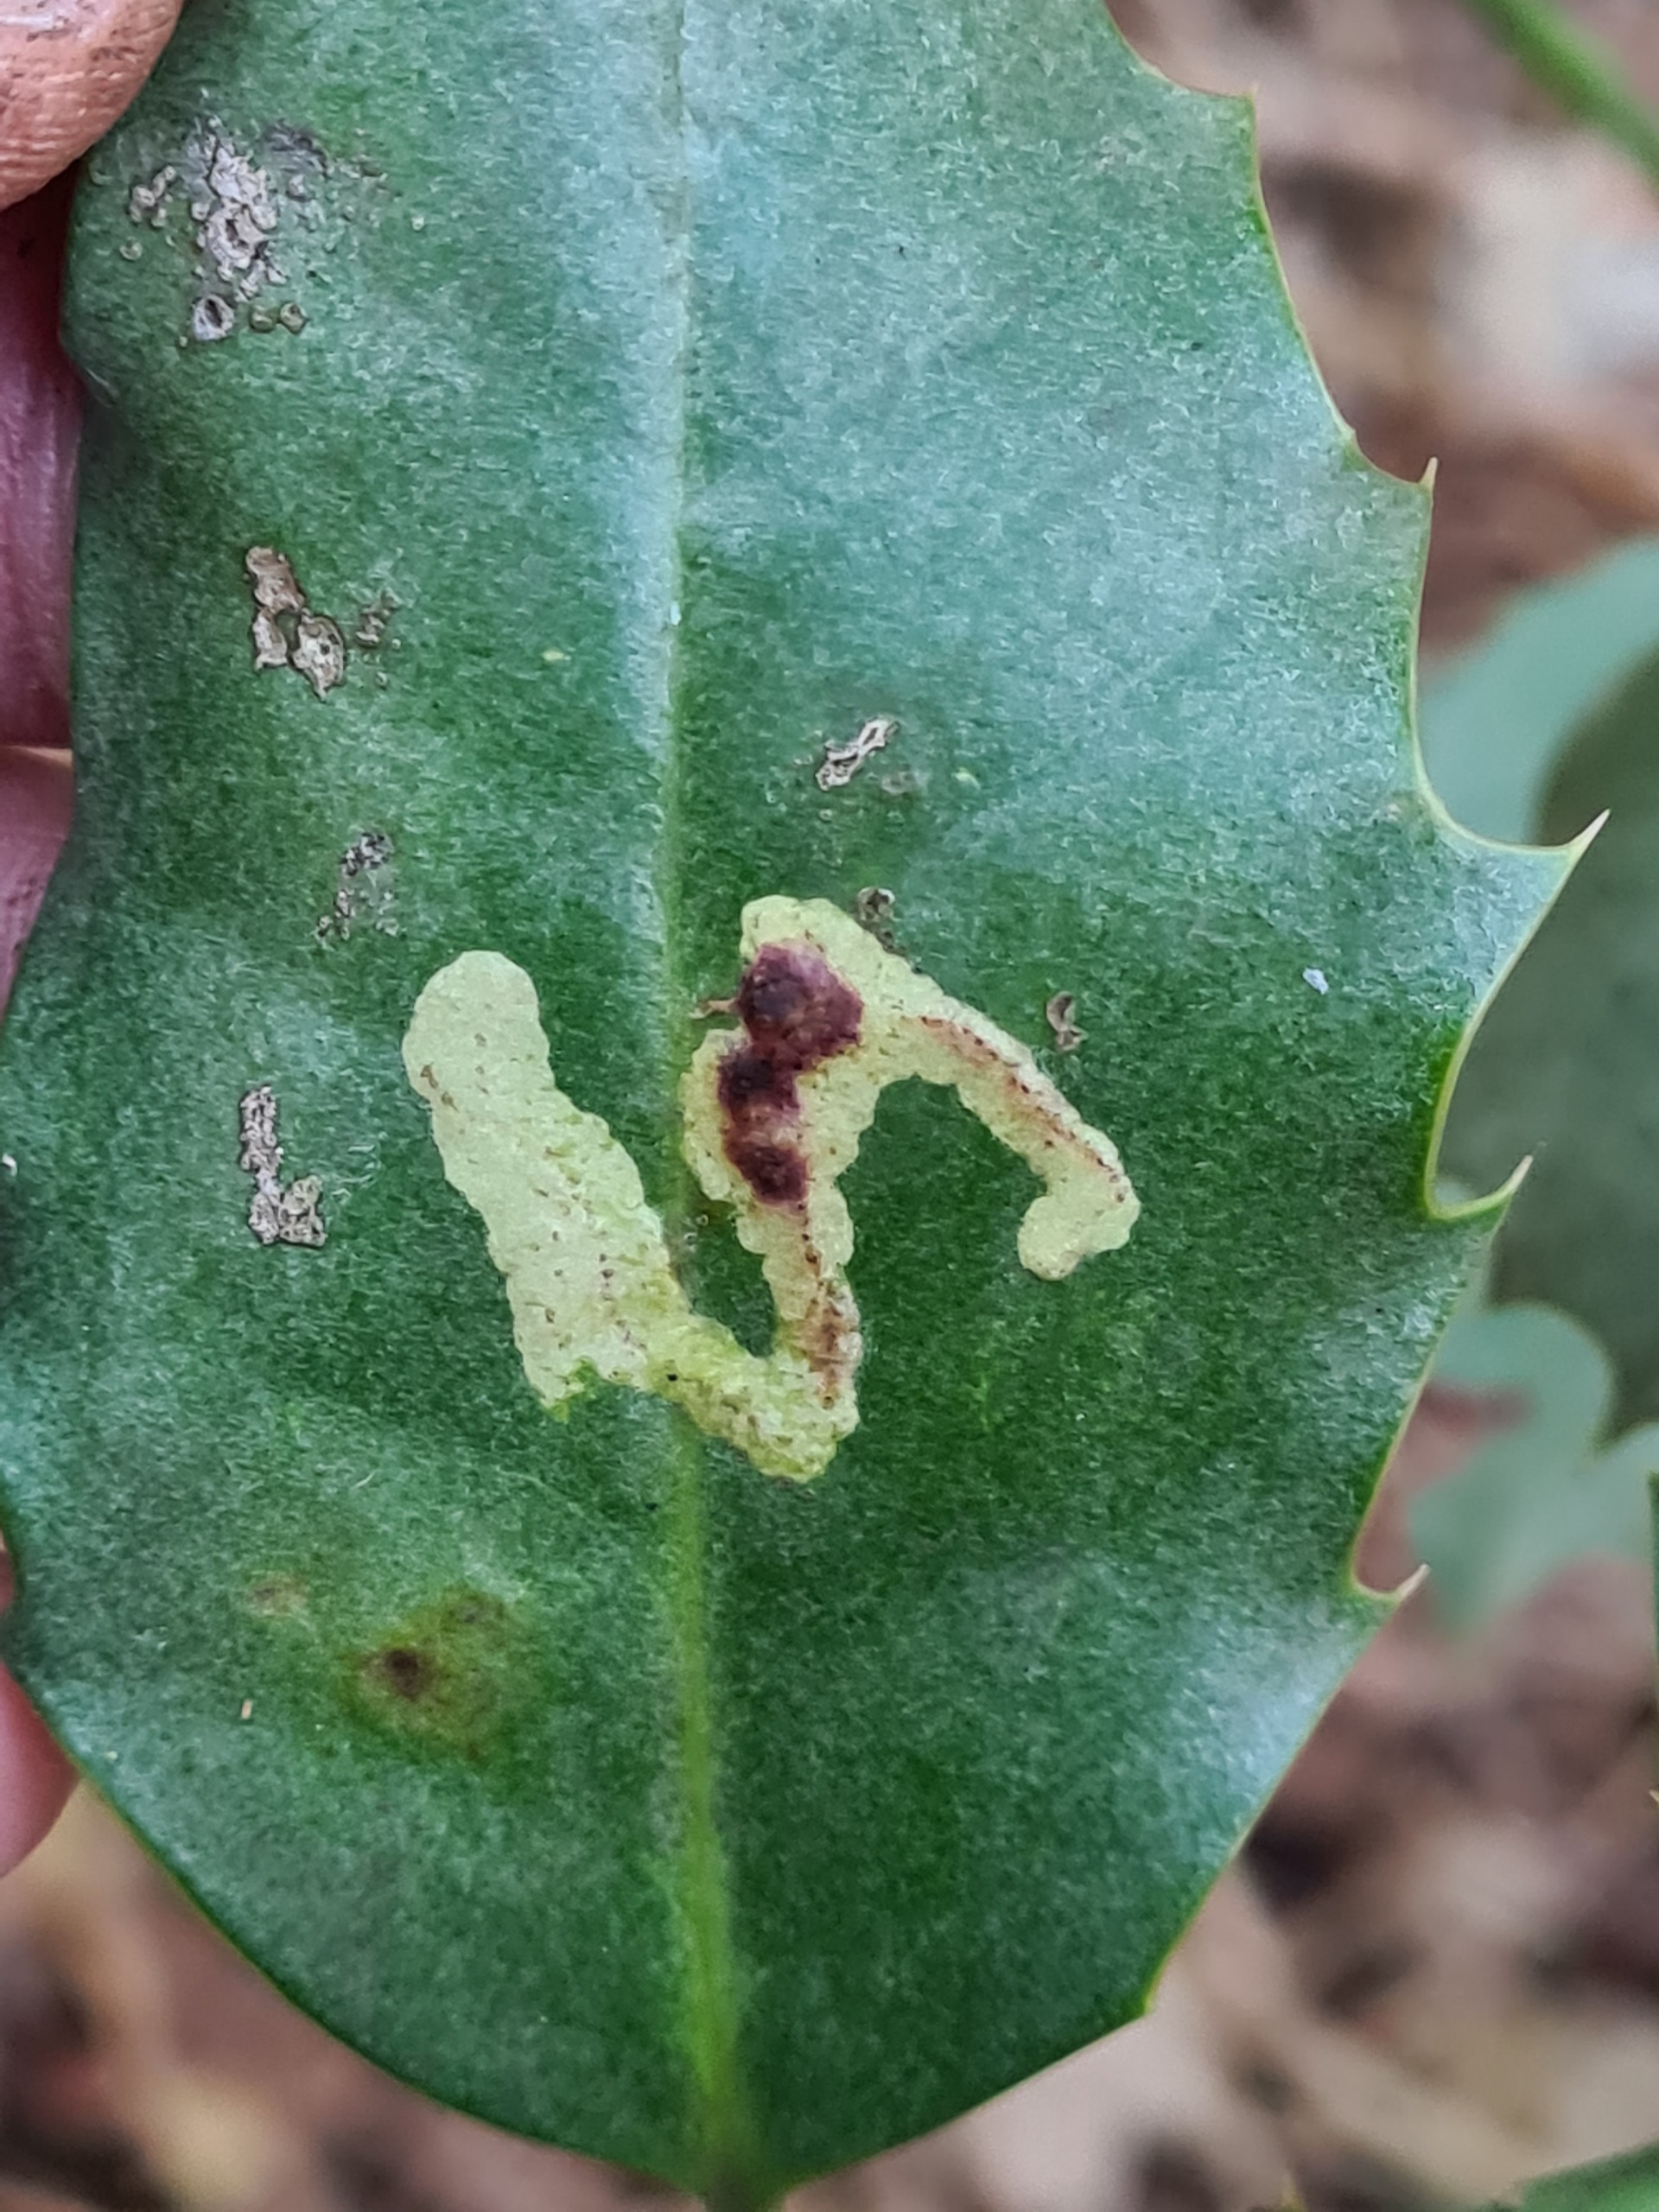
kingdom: Animalia
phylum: Arthropoda
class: Insecta
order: Diptera
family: Agromyzidae
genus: Phytomyza
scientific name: Phytomyza ilicis
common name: Kristtornminérflue
